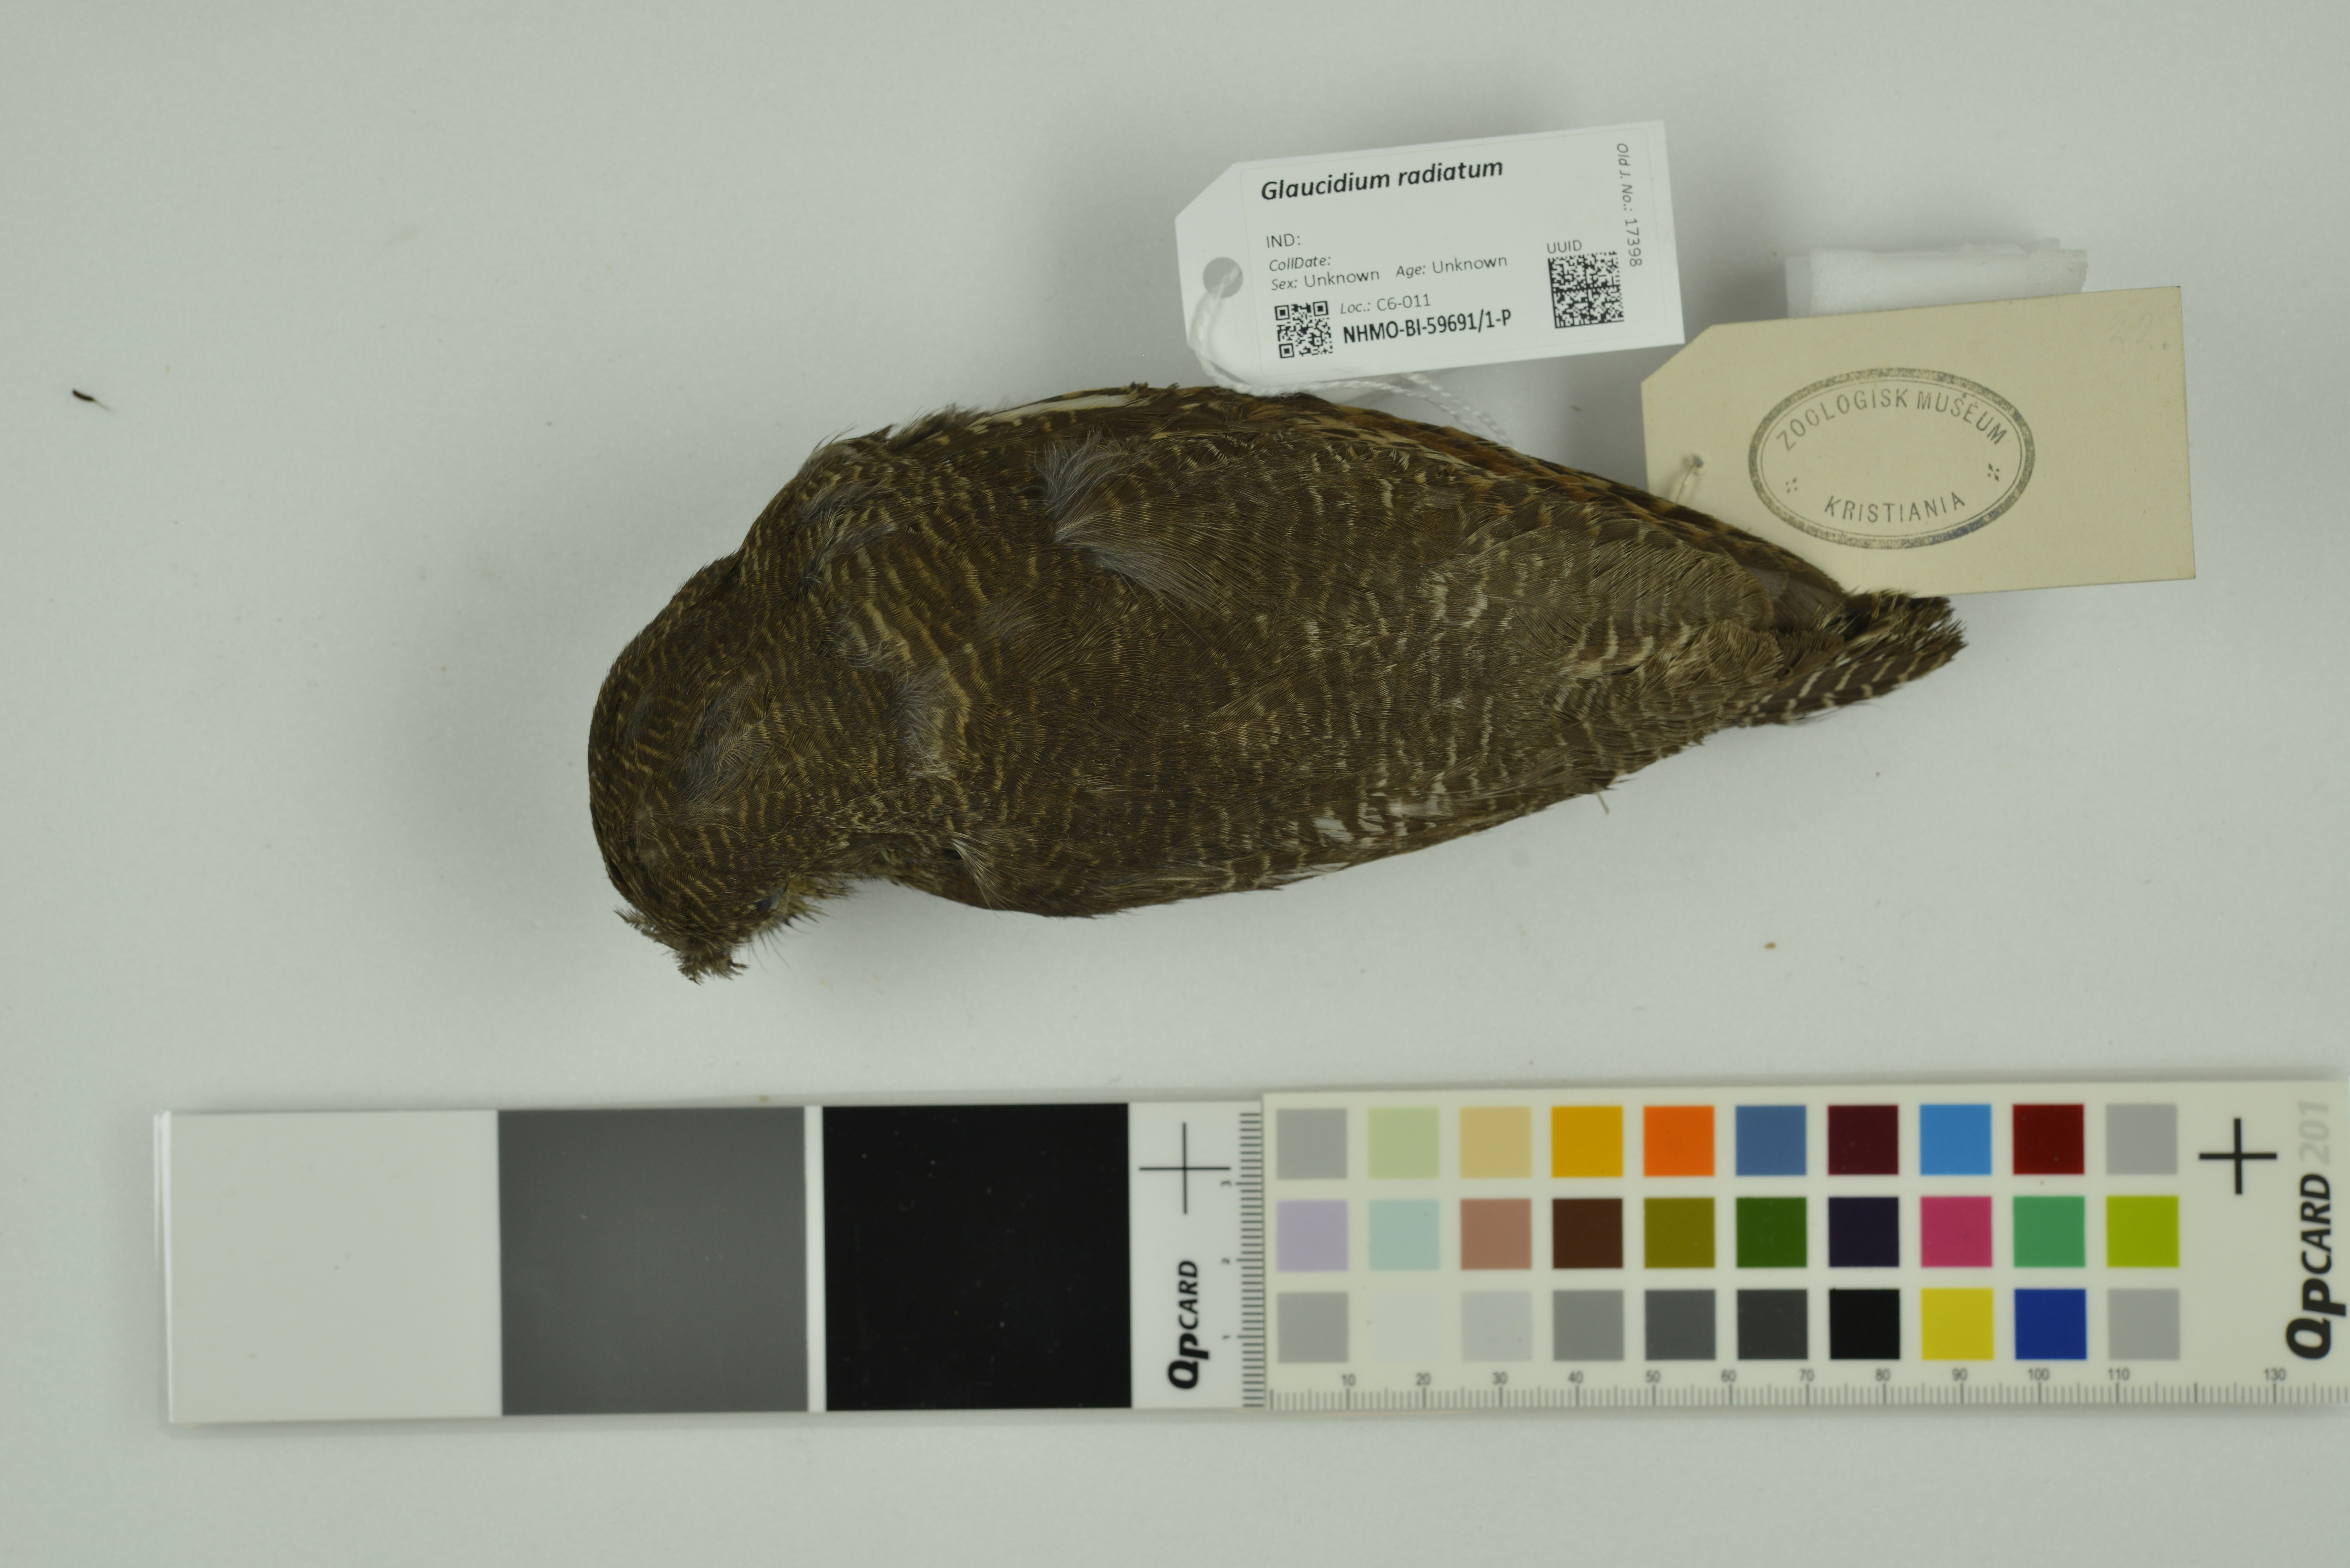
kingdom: Animalia
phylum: Chordata
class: Aves
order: Strigiformes
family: Strigidae
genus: Glaucidium
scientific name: Glaucidium radiatum
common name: Jungle owlet
